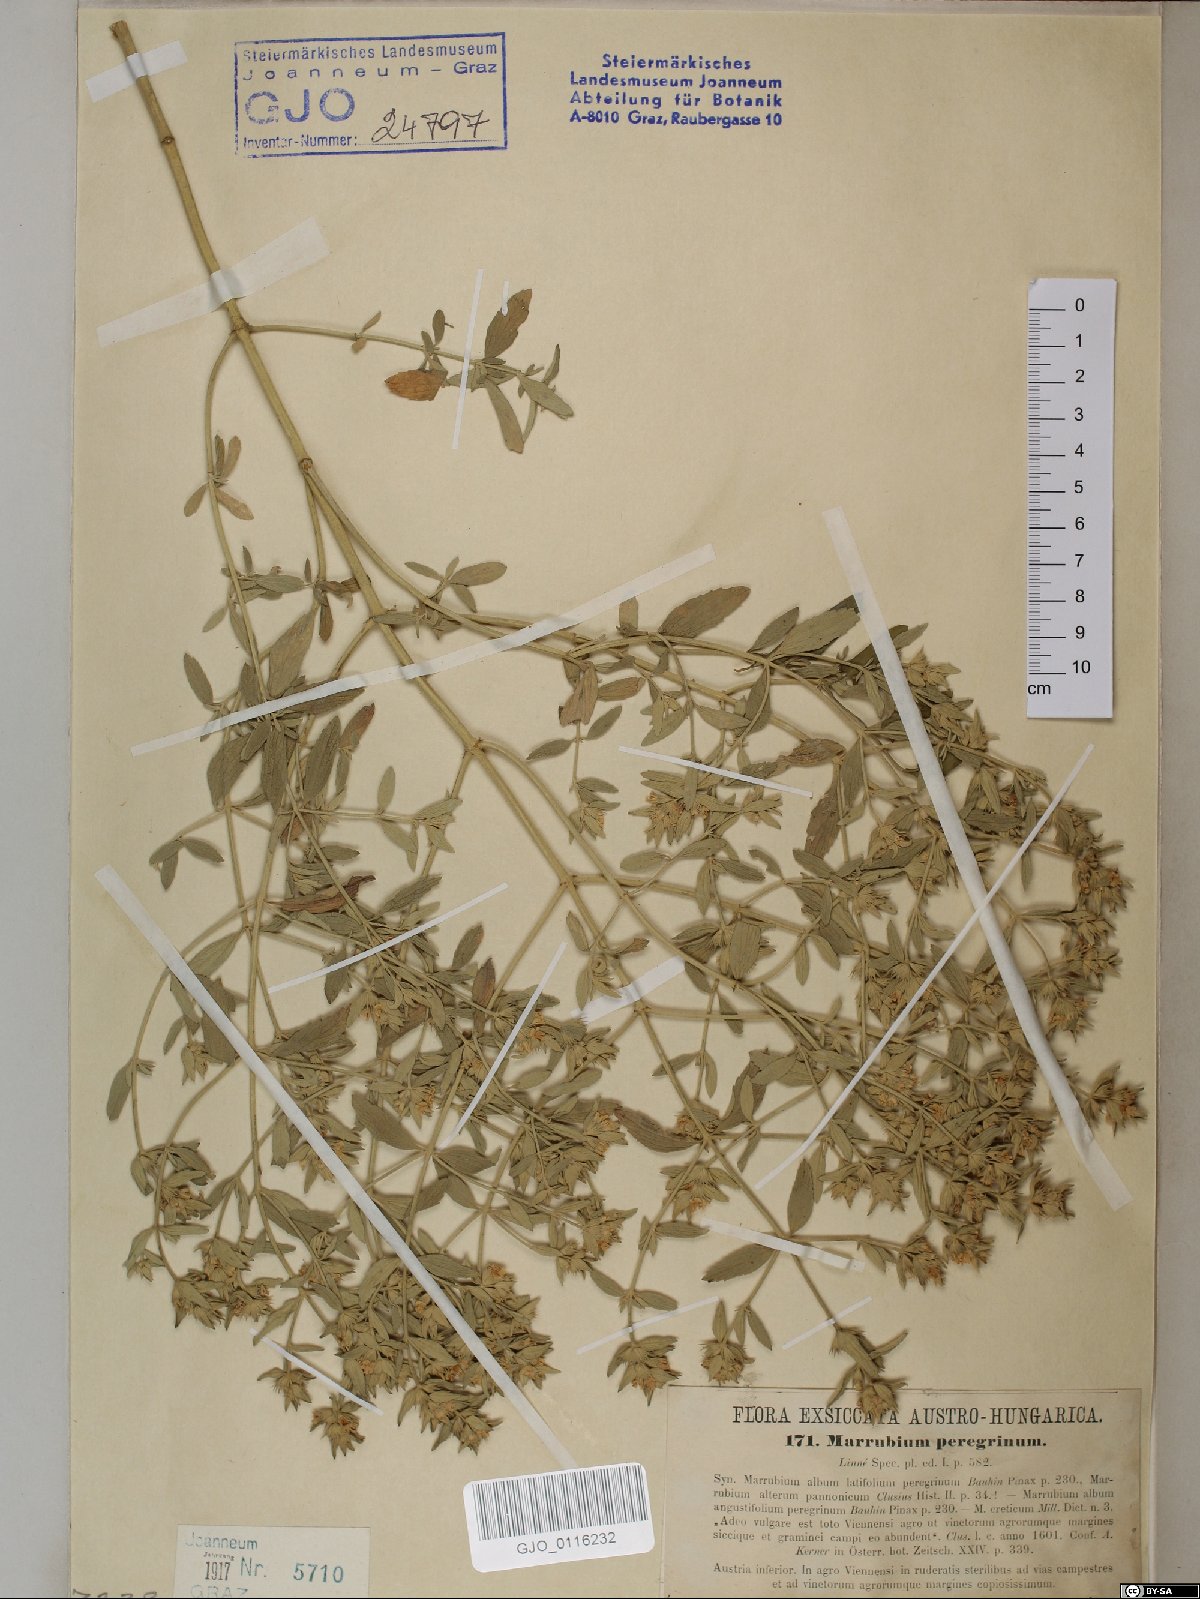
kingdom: Plantae
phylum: Tracheophyta
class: Magnoliopsida
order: Lamiales
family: Lamiaceae
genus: Marrubium
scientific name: Marrubium peregrinum
